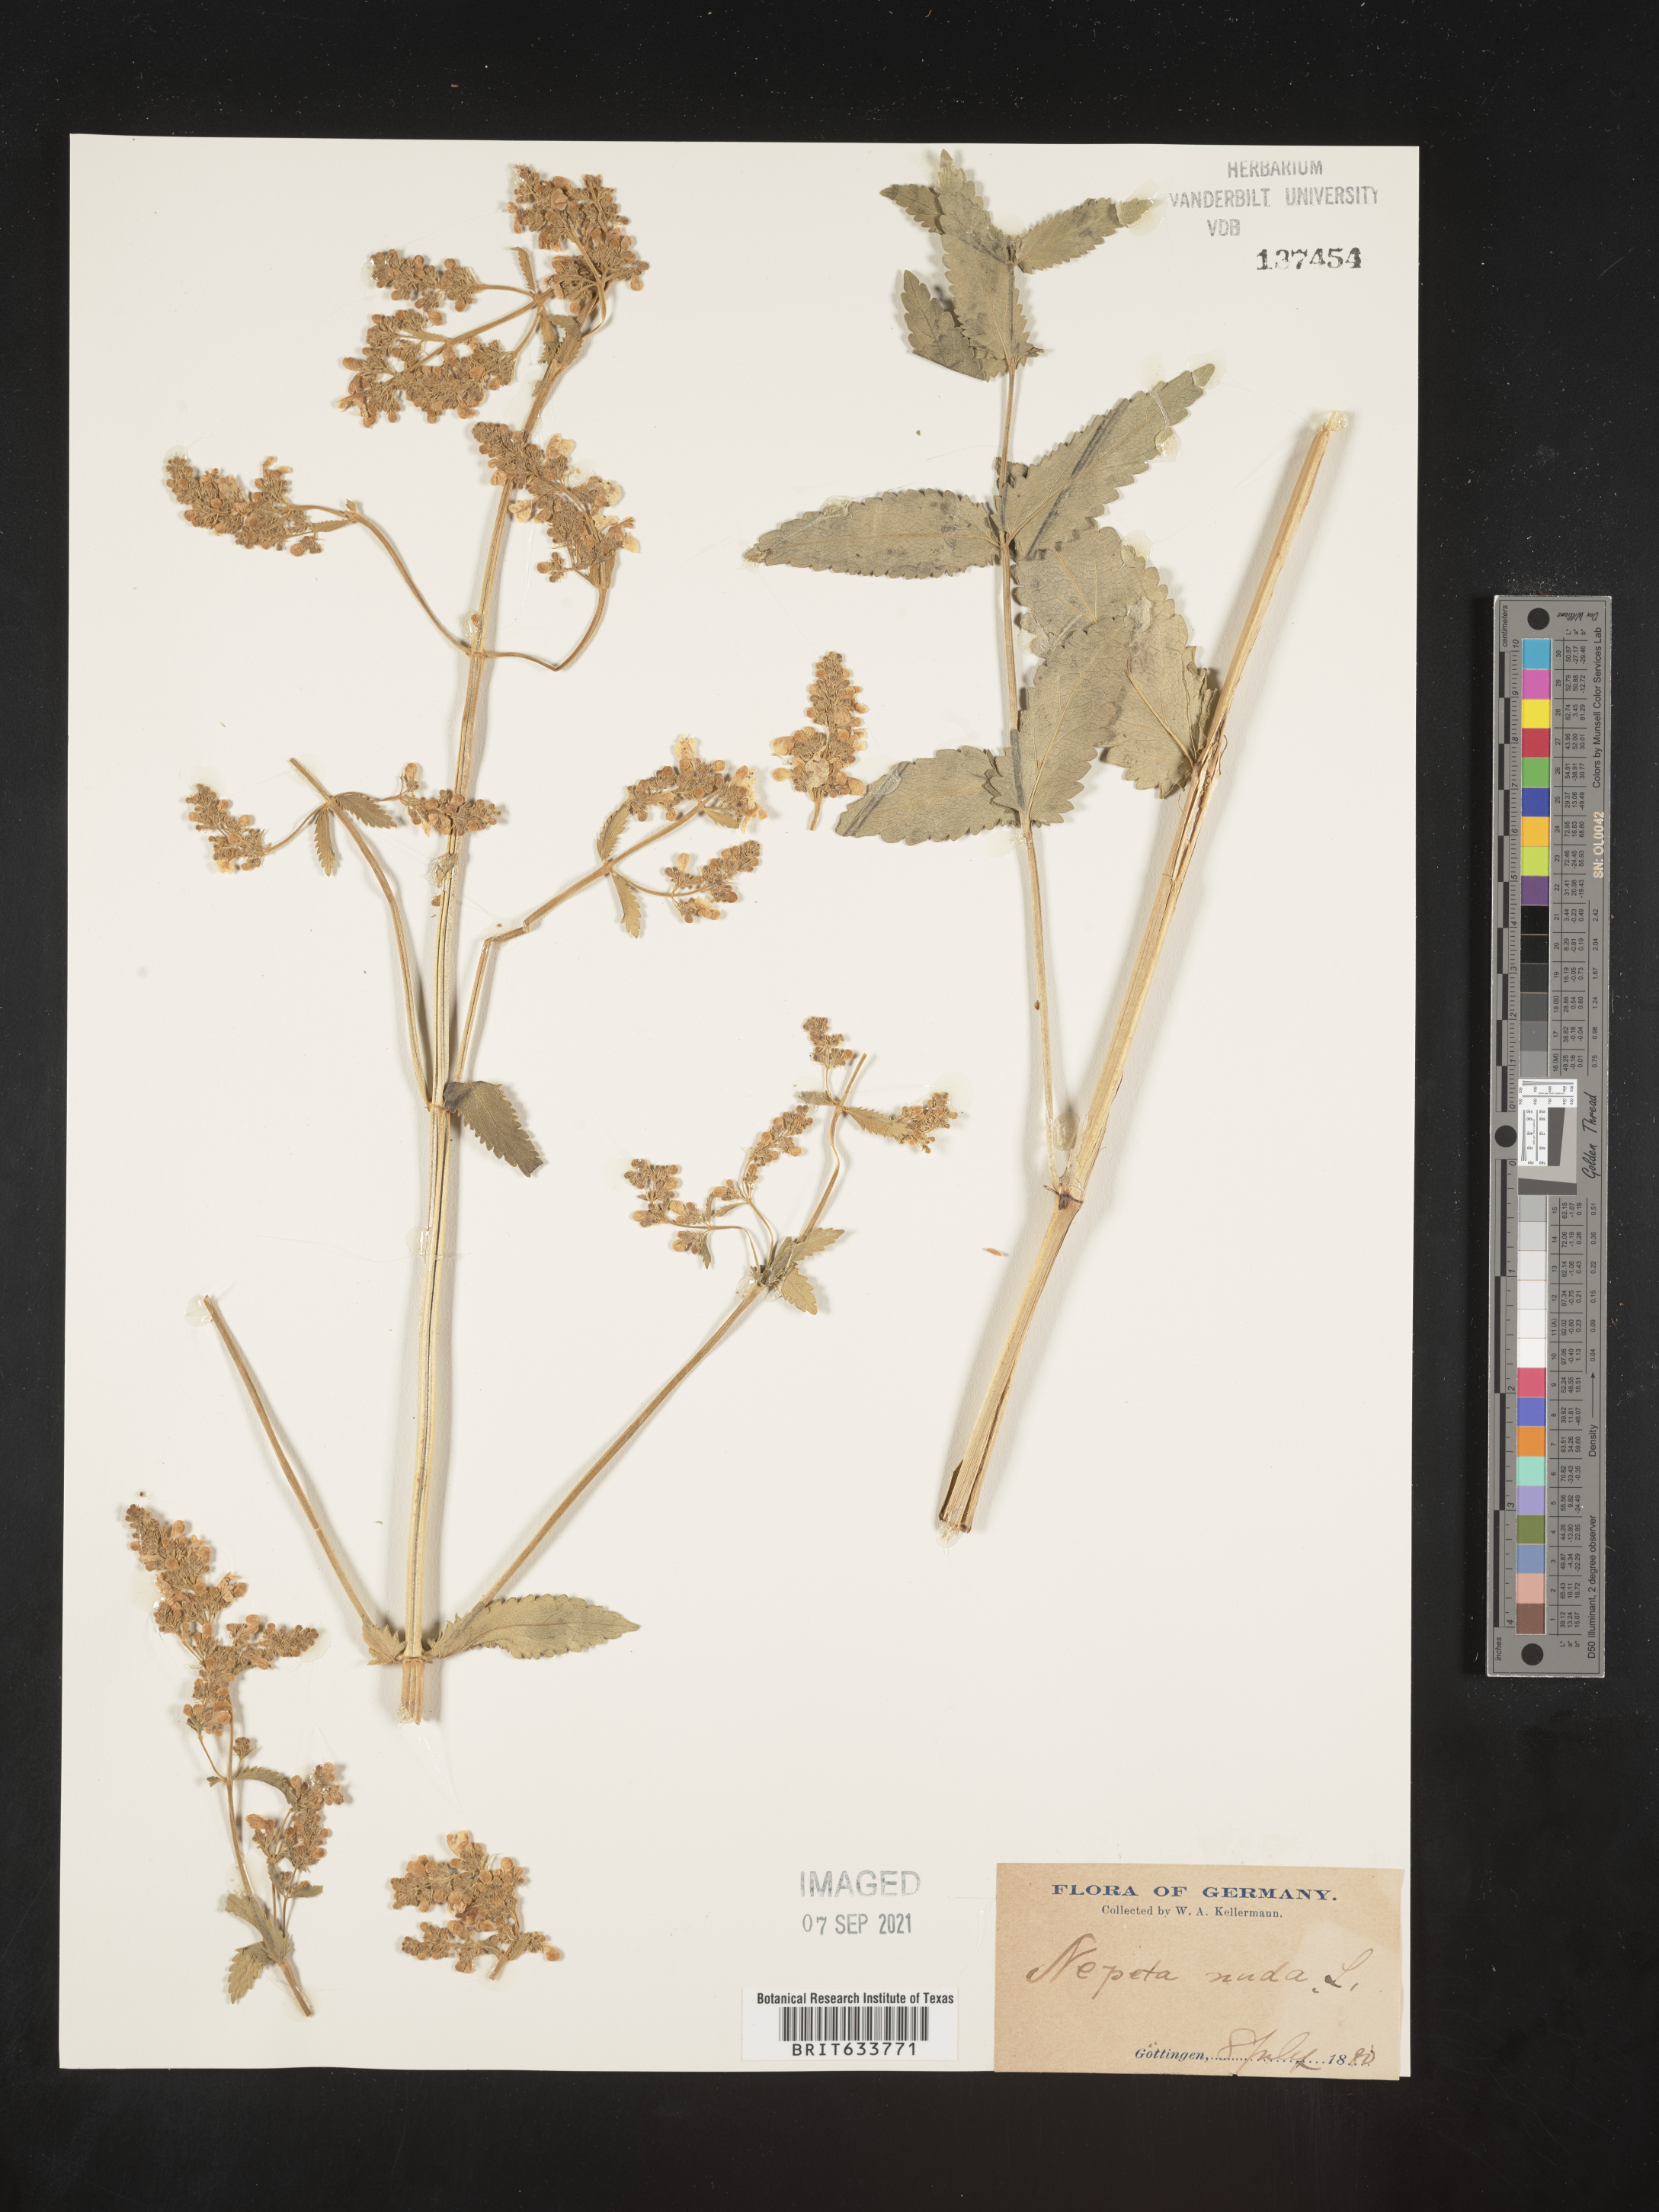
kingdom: Plantae
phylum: Tracheophyta
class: Magnoliopsida
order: Lamiales
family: Lamiaceae
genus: Nepeta
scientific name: Nepeta
